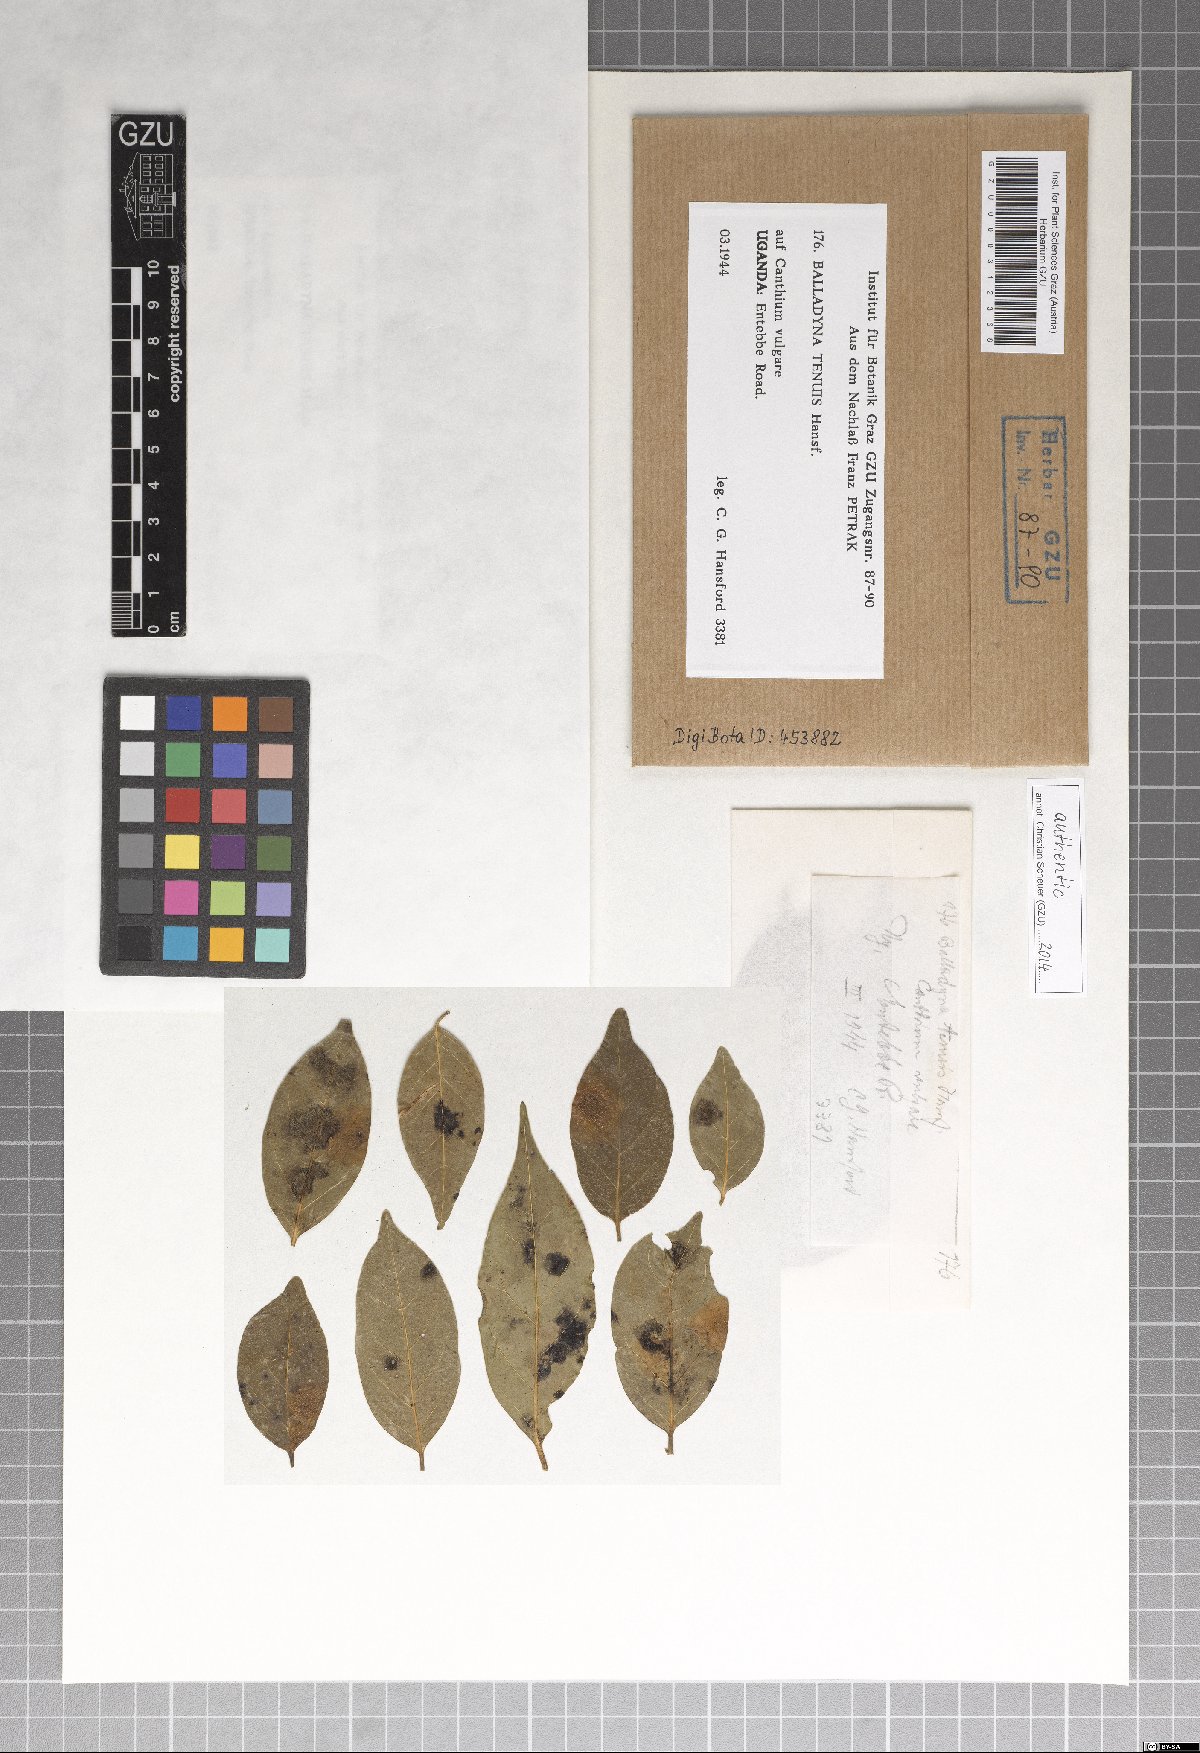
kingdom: Fungi
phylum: Ascomycota
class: Dothideomycetes
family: Balladynaceae
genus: Balladyna
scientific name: Balladyna tenuis
